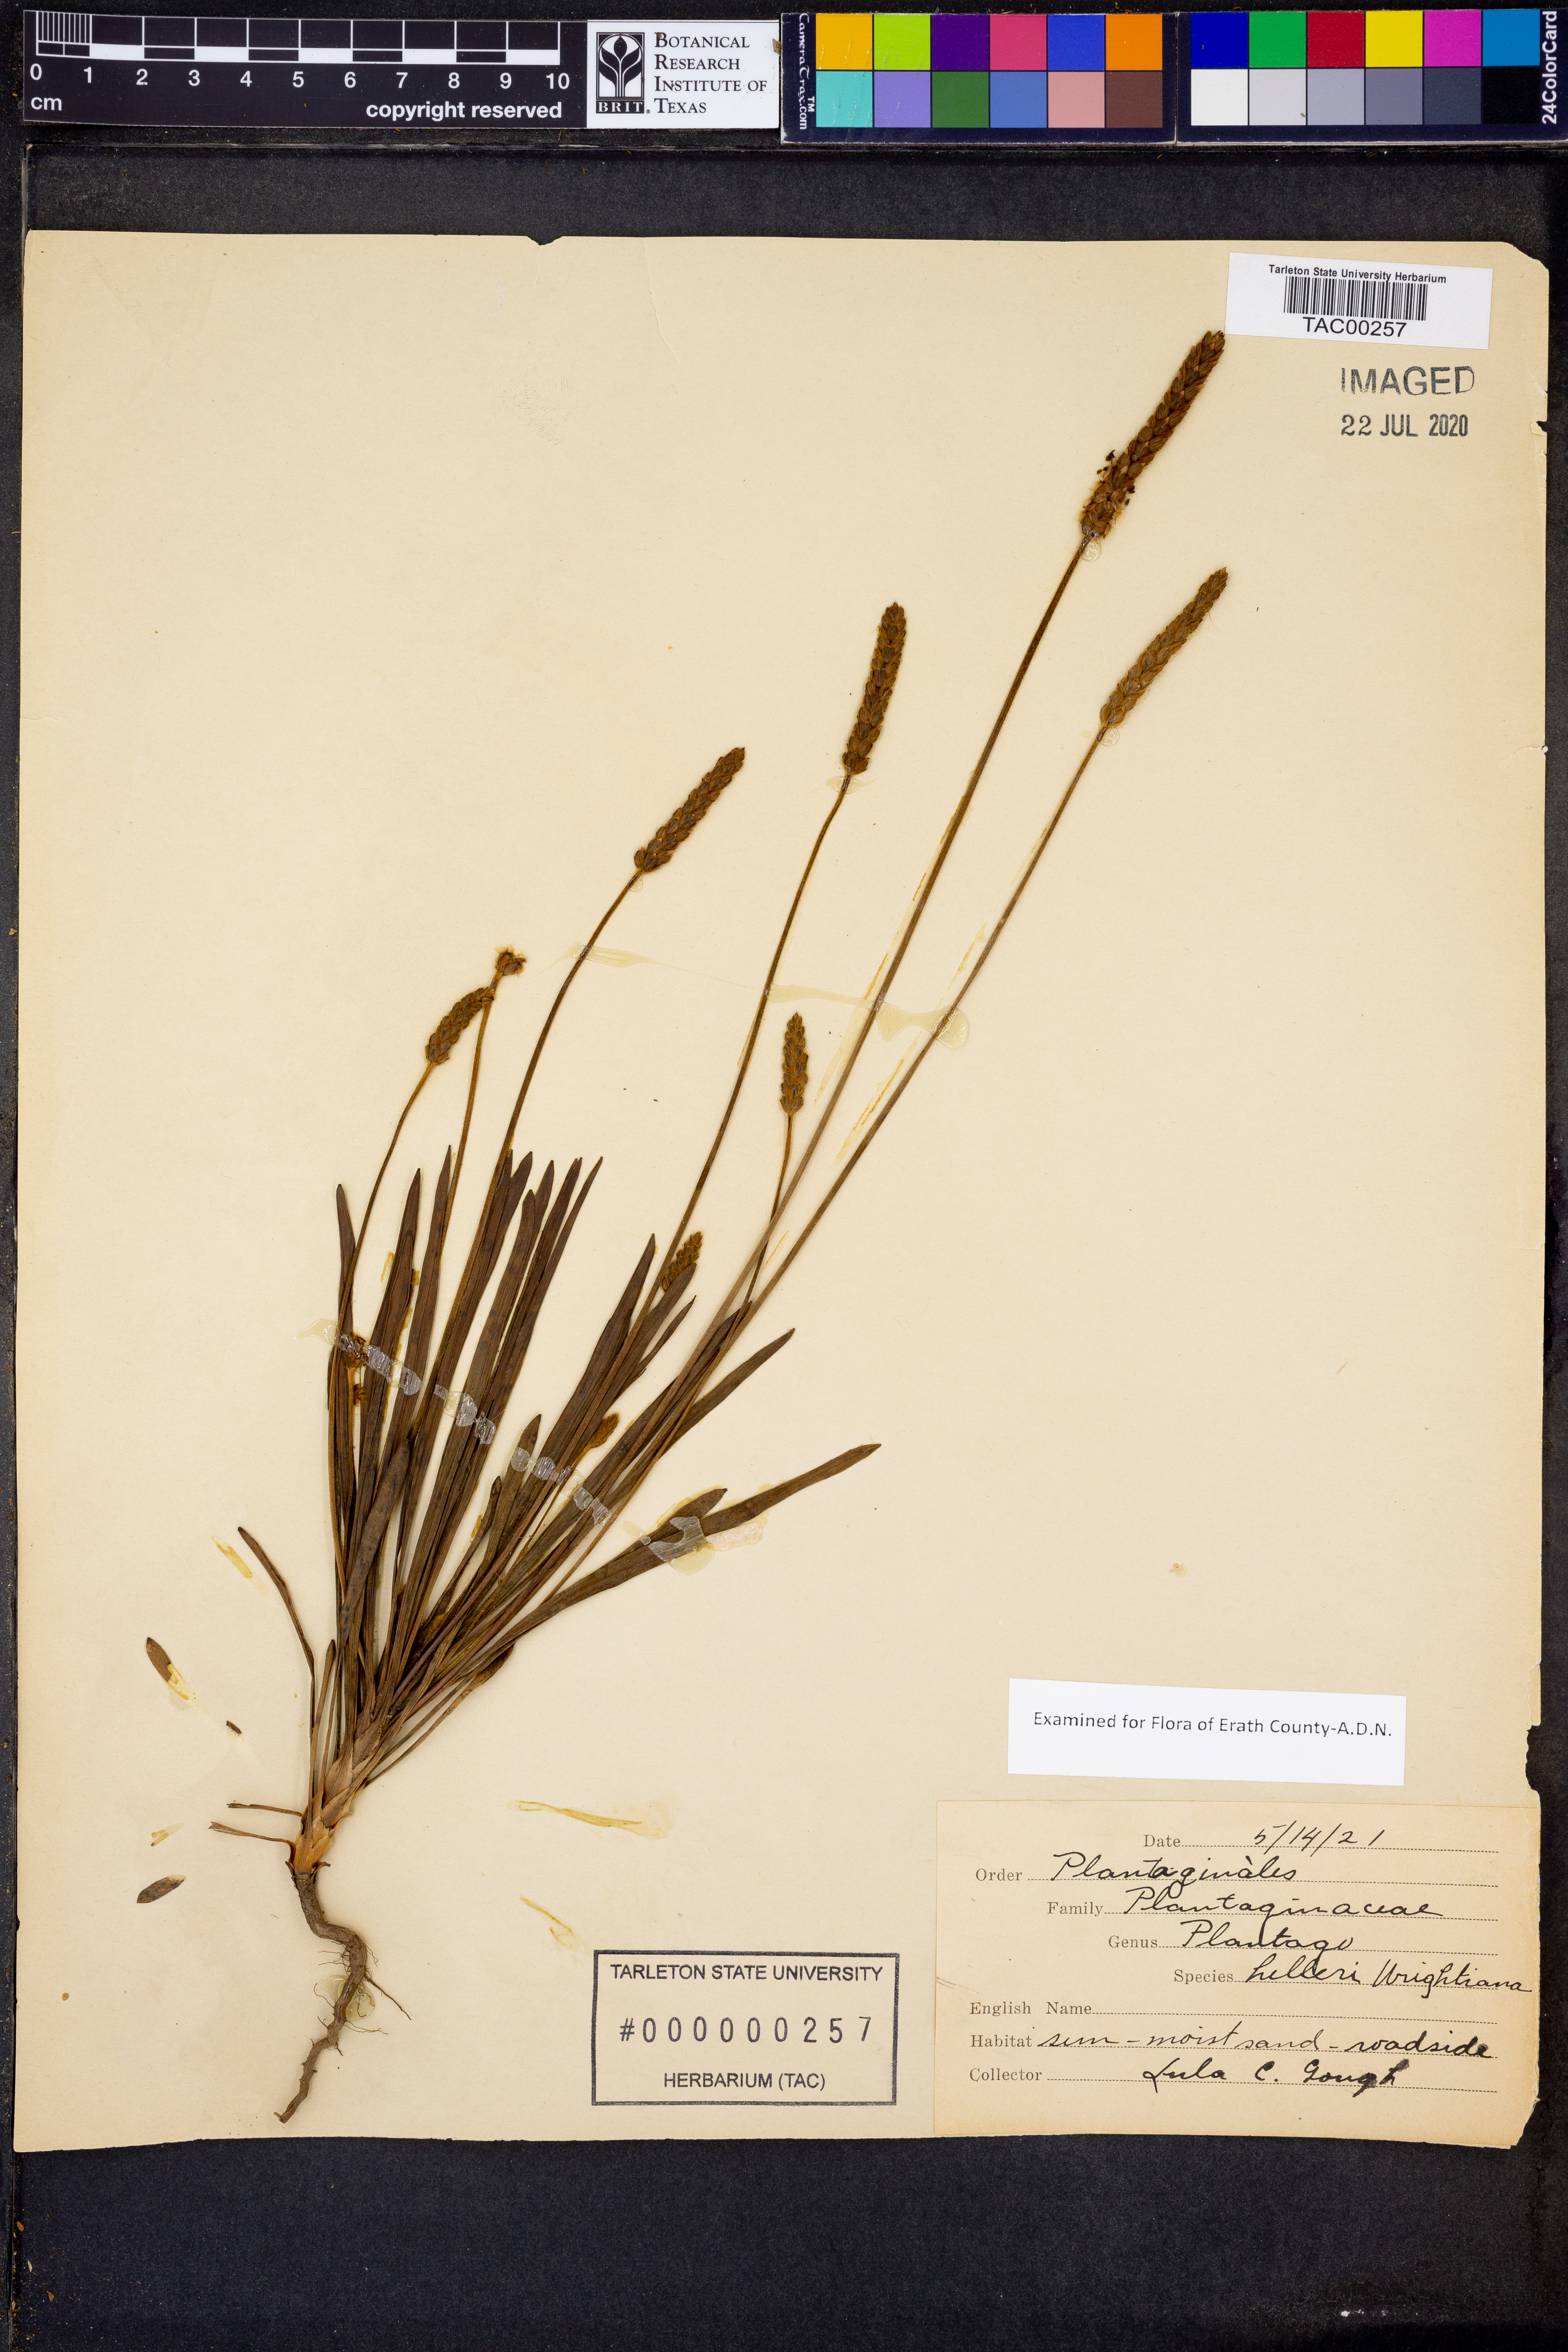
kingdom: Plantae
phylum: Tracheophyta
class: Magnoliopsida
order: Lamiales
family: Plantaginaceae
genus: Plantago
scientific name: Plantago helleri
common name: Heller's plantain
